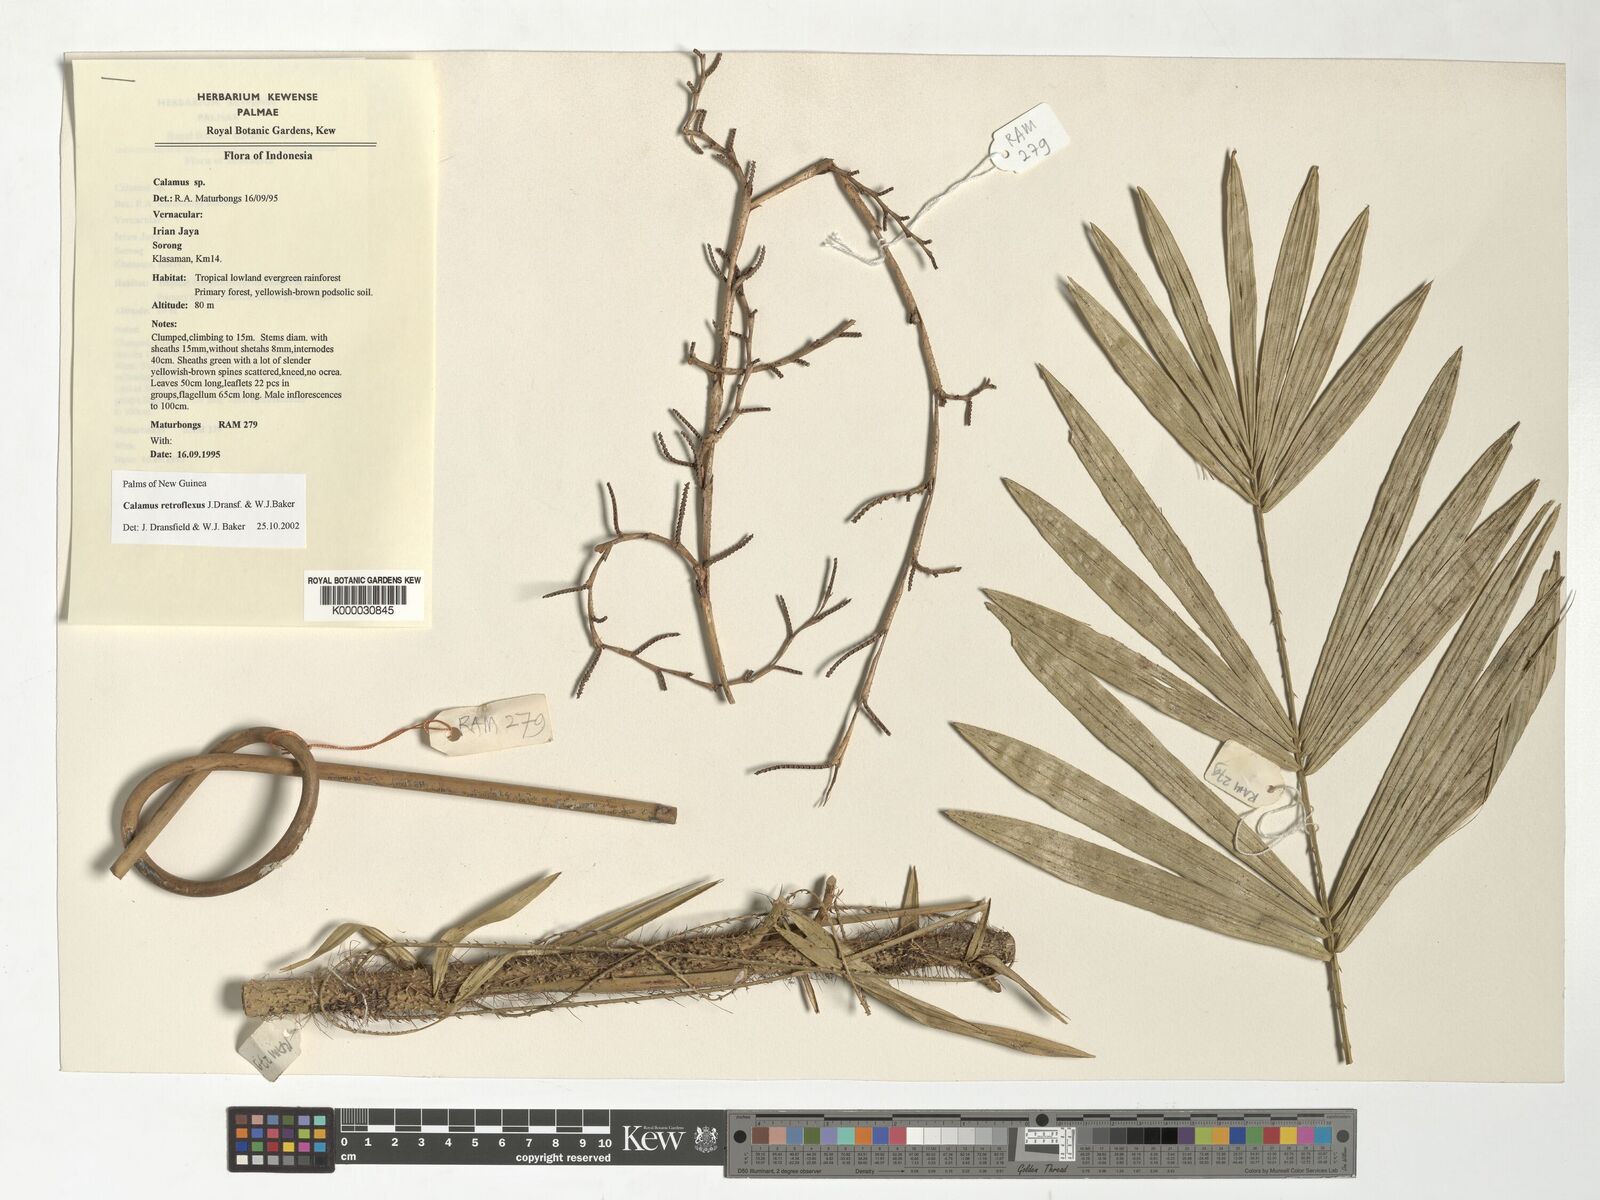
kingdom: Plantae
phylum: Tracheophyta
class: Liliopsida
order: Arecales
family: Arecaceae
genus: Calamus
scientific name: Calamus retroflexus
